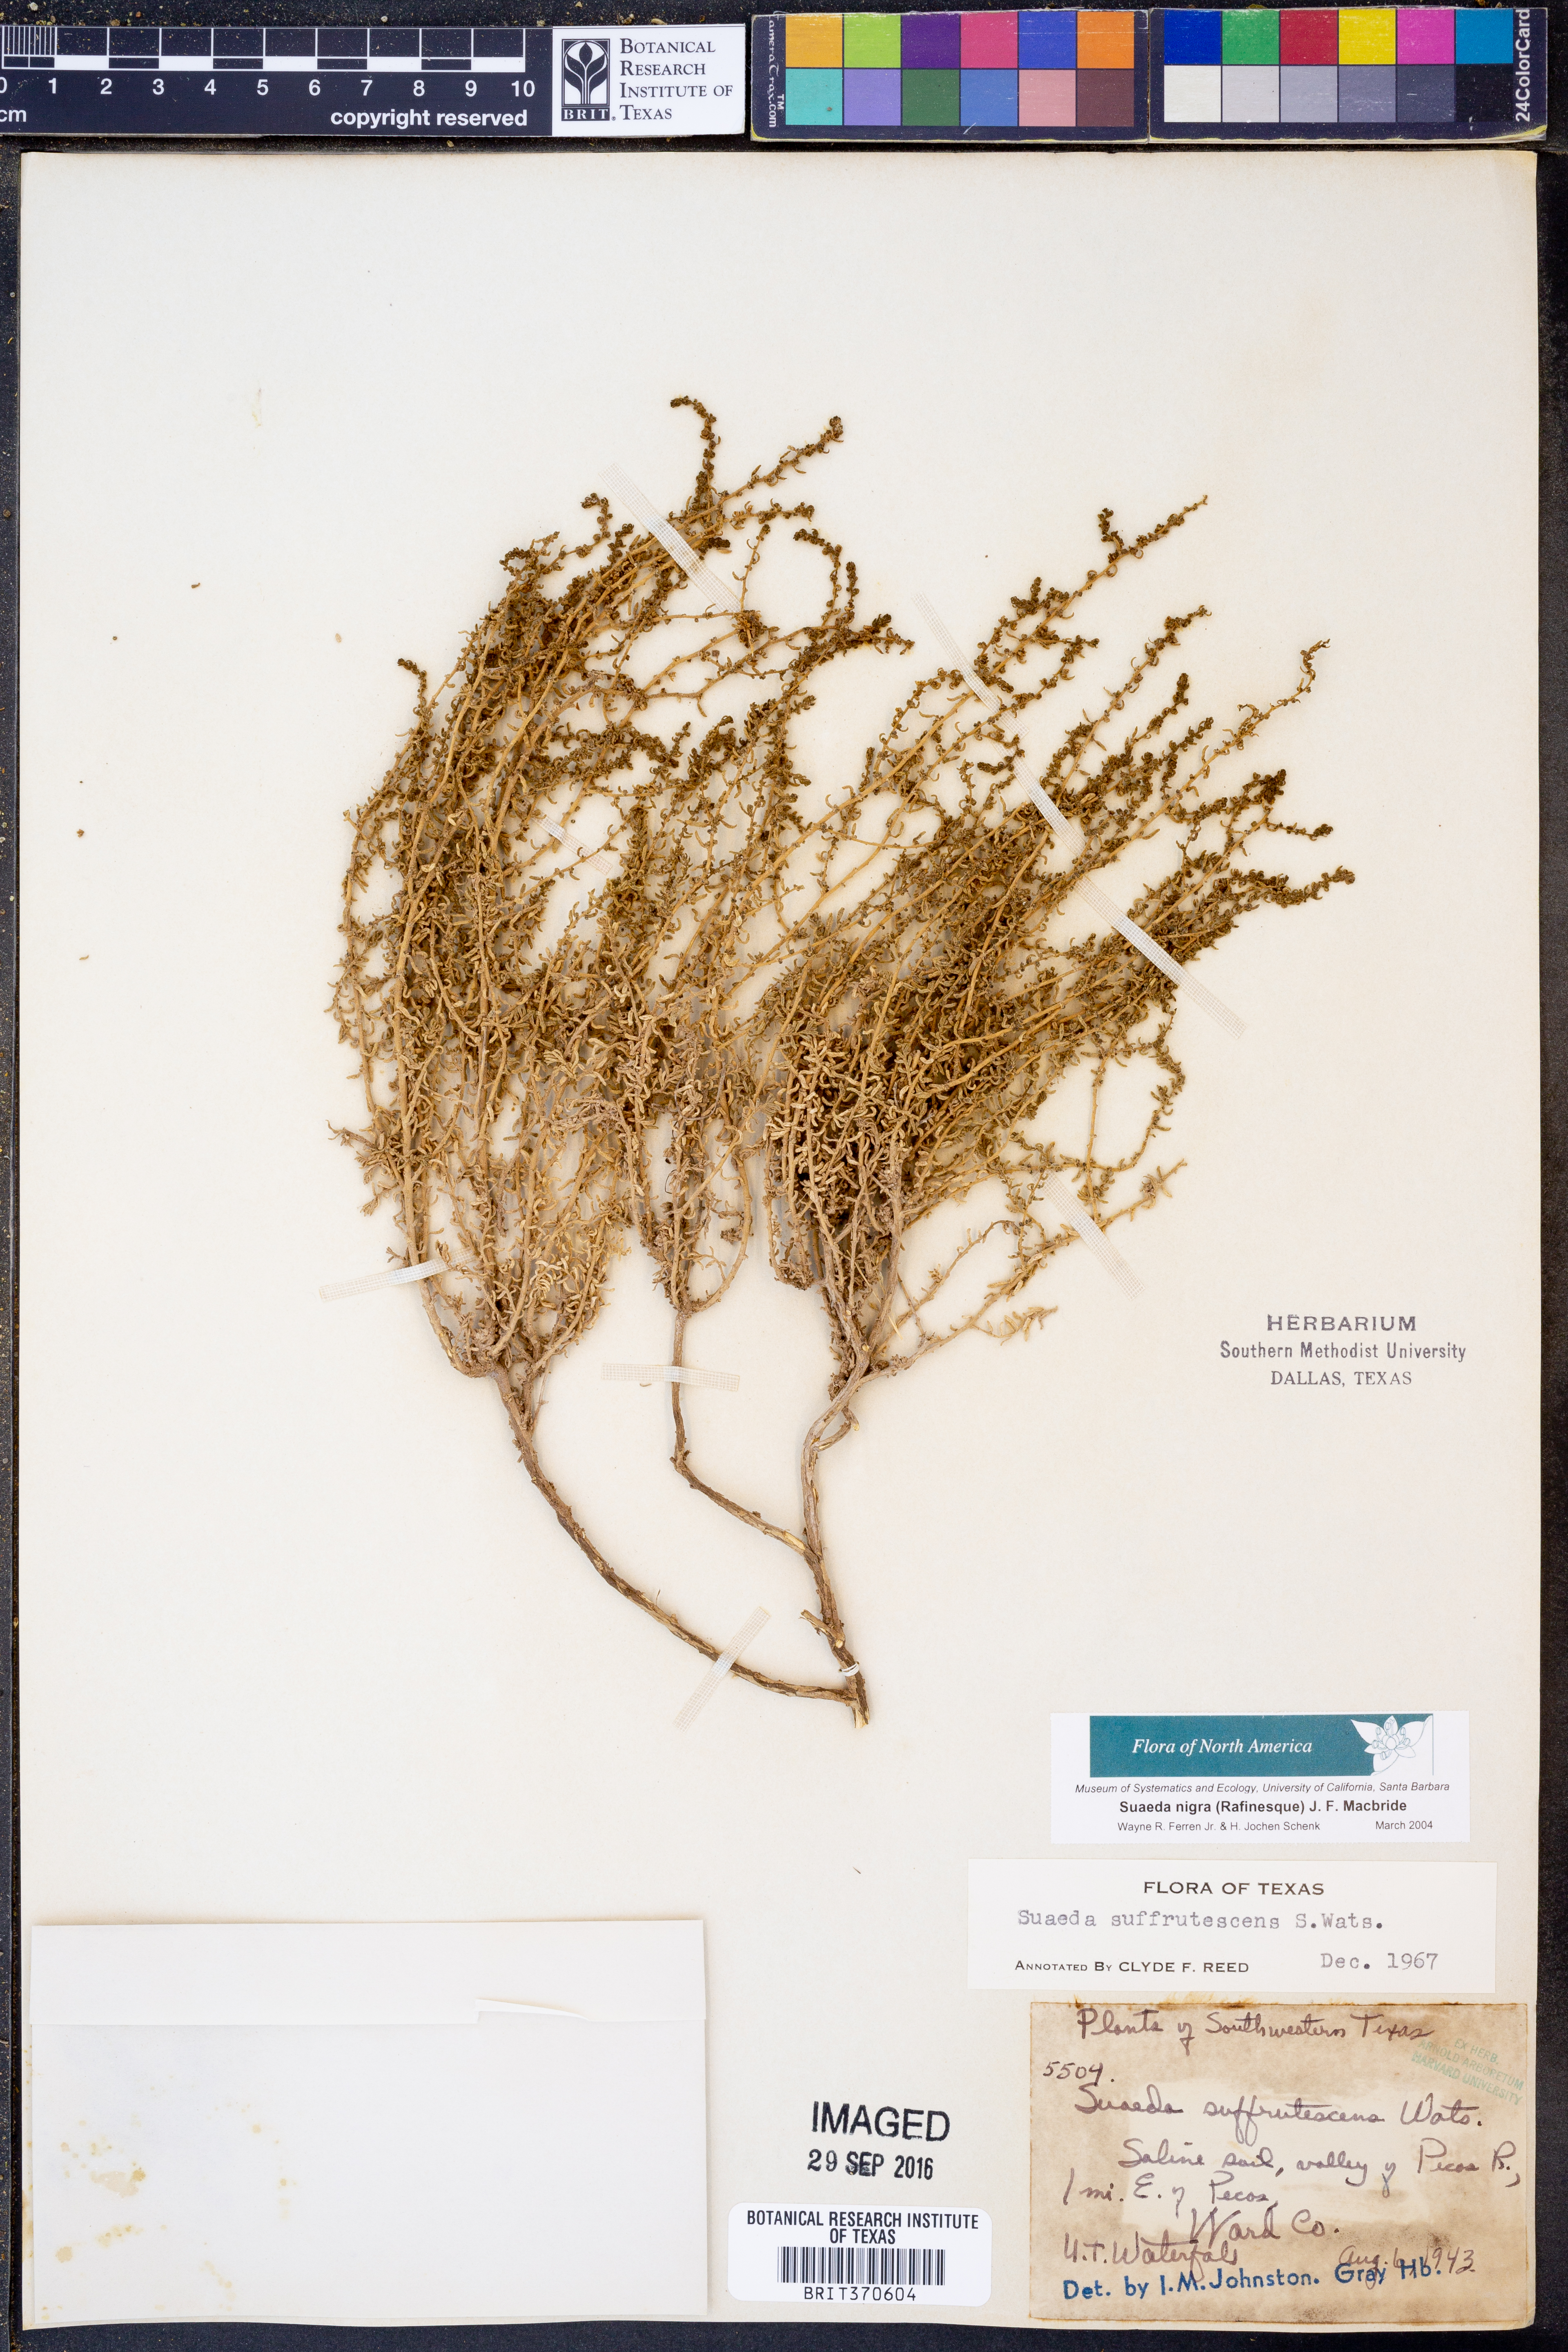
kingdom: Plantae
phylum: Tracheophyta
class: Magnoliopsida
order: Caryophyllales
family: Amaranthaceae
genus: Suaeda
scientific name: Suaeda nigra
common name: Bush seepweed
